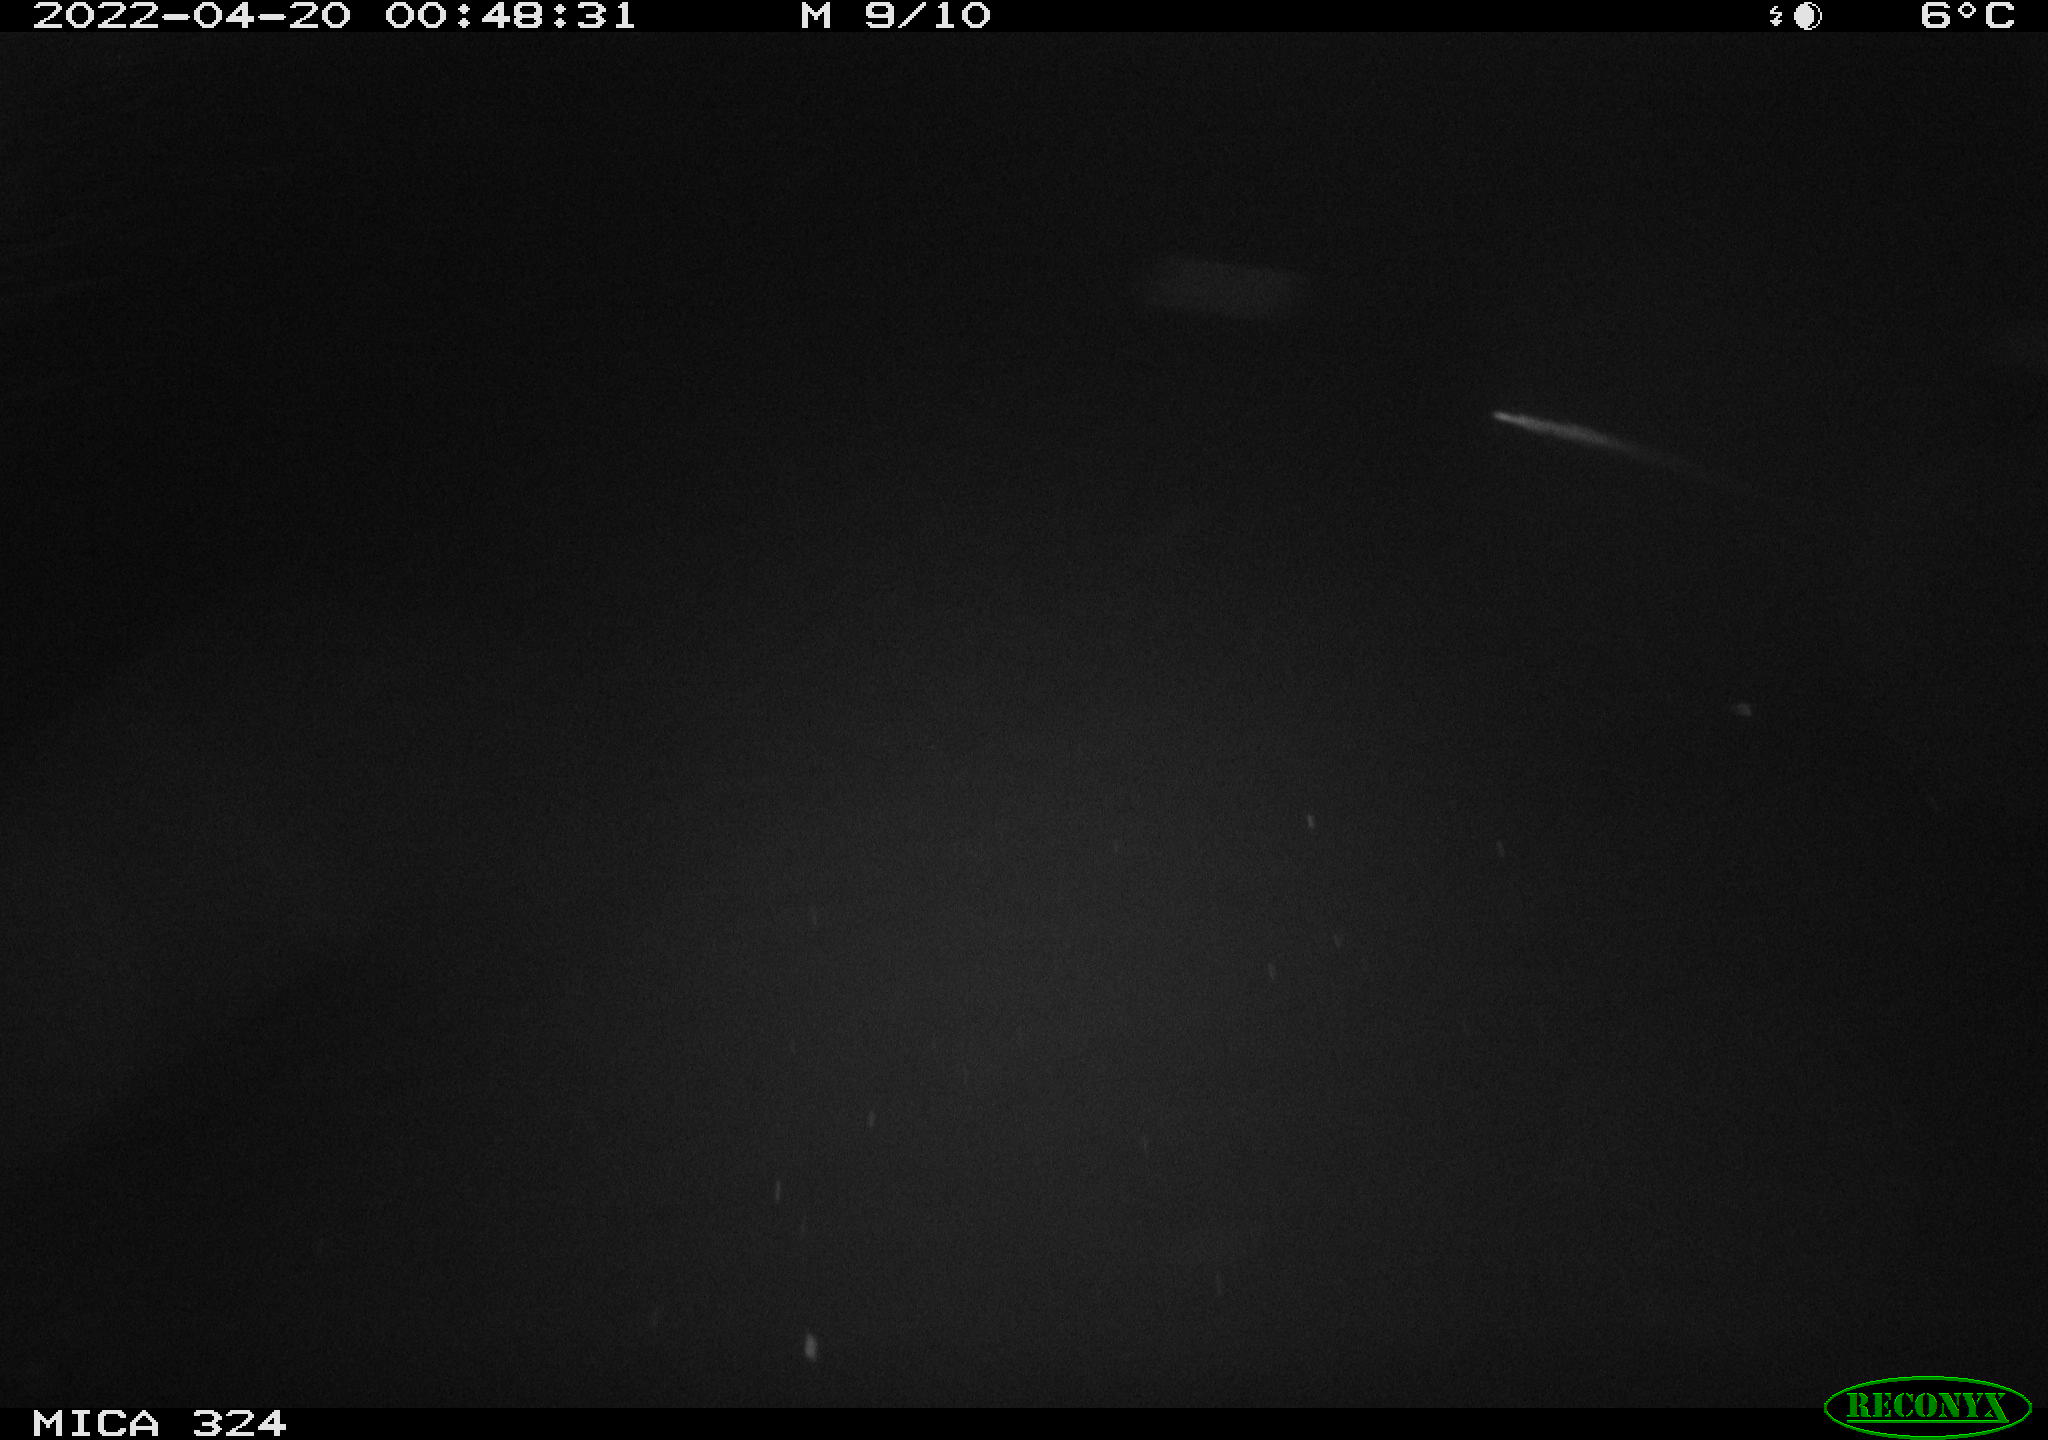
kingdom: Animalia
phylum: Chordata
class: Mammalia
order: Rodentia
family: Muridae
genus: Rattus
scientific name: Rattus norvegicus
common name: Brown rat
